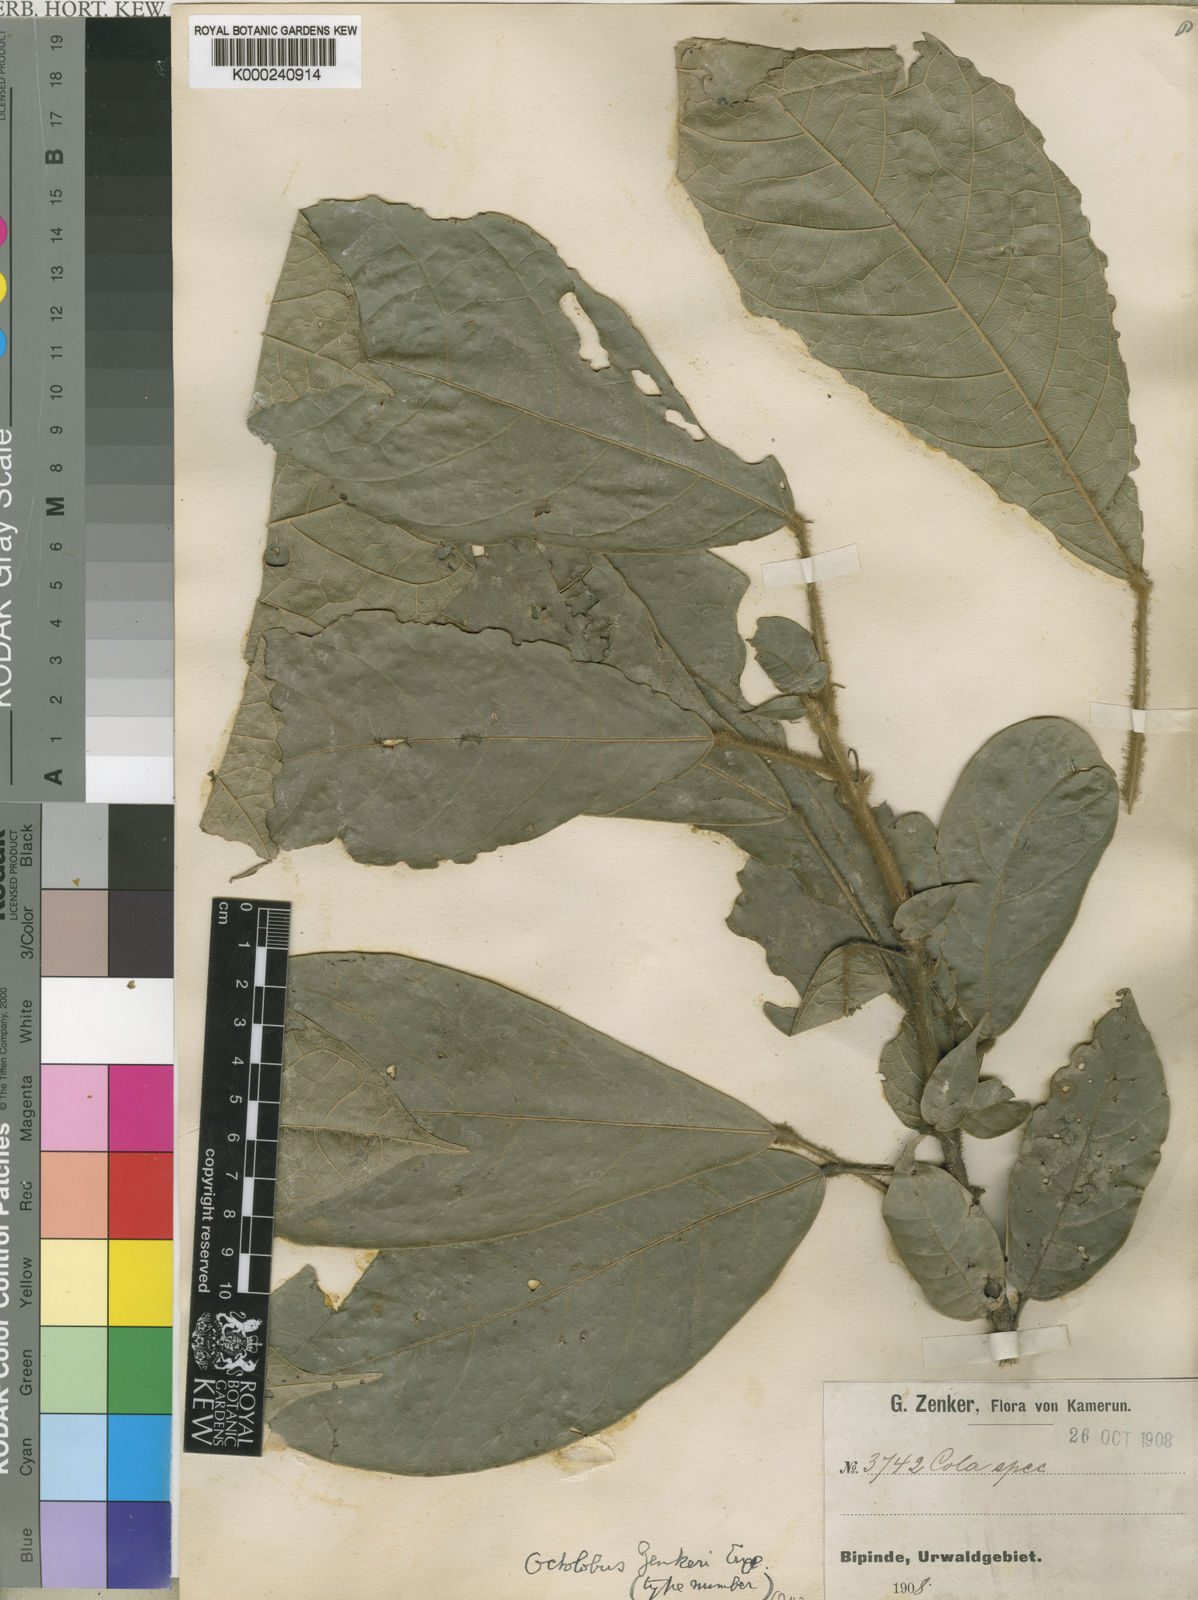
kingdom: Plantae
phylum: Tracheophyta
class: Magnoliopsida
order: Malvales
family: Malvaceae
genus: Octolobus
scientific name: Octolobus zenkeri
